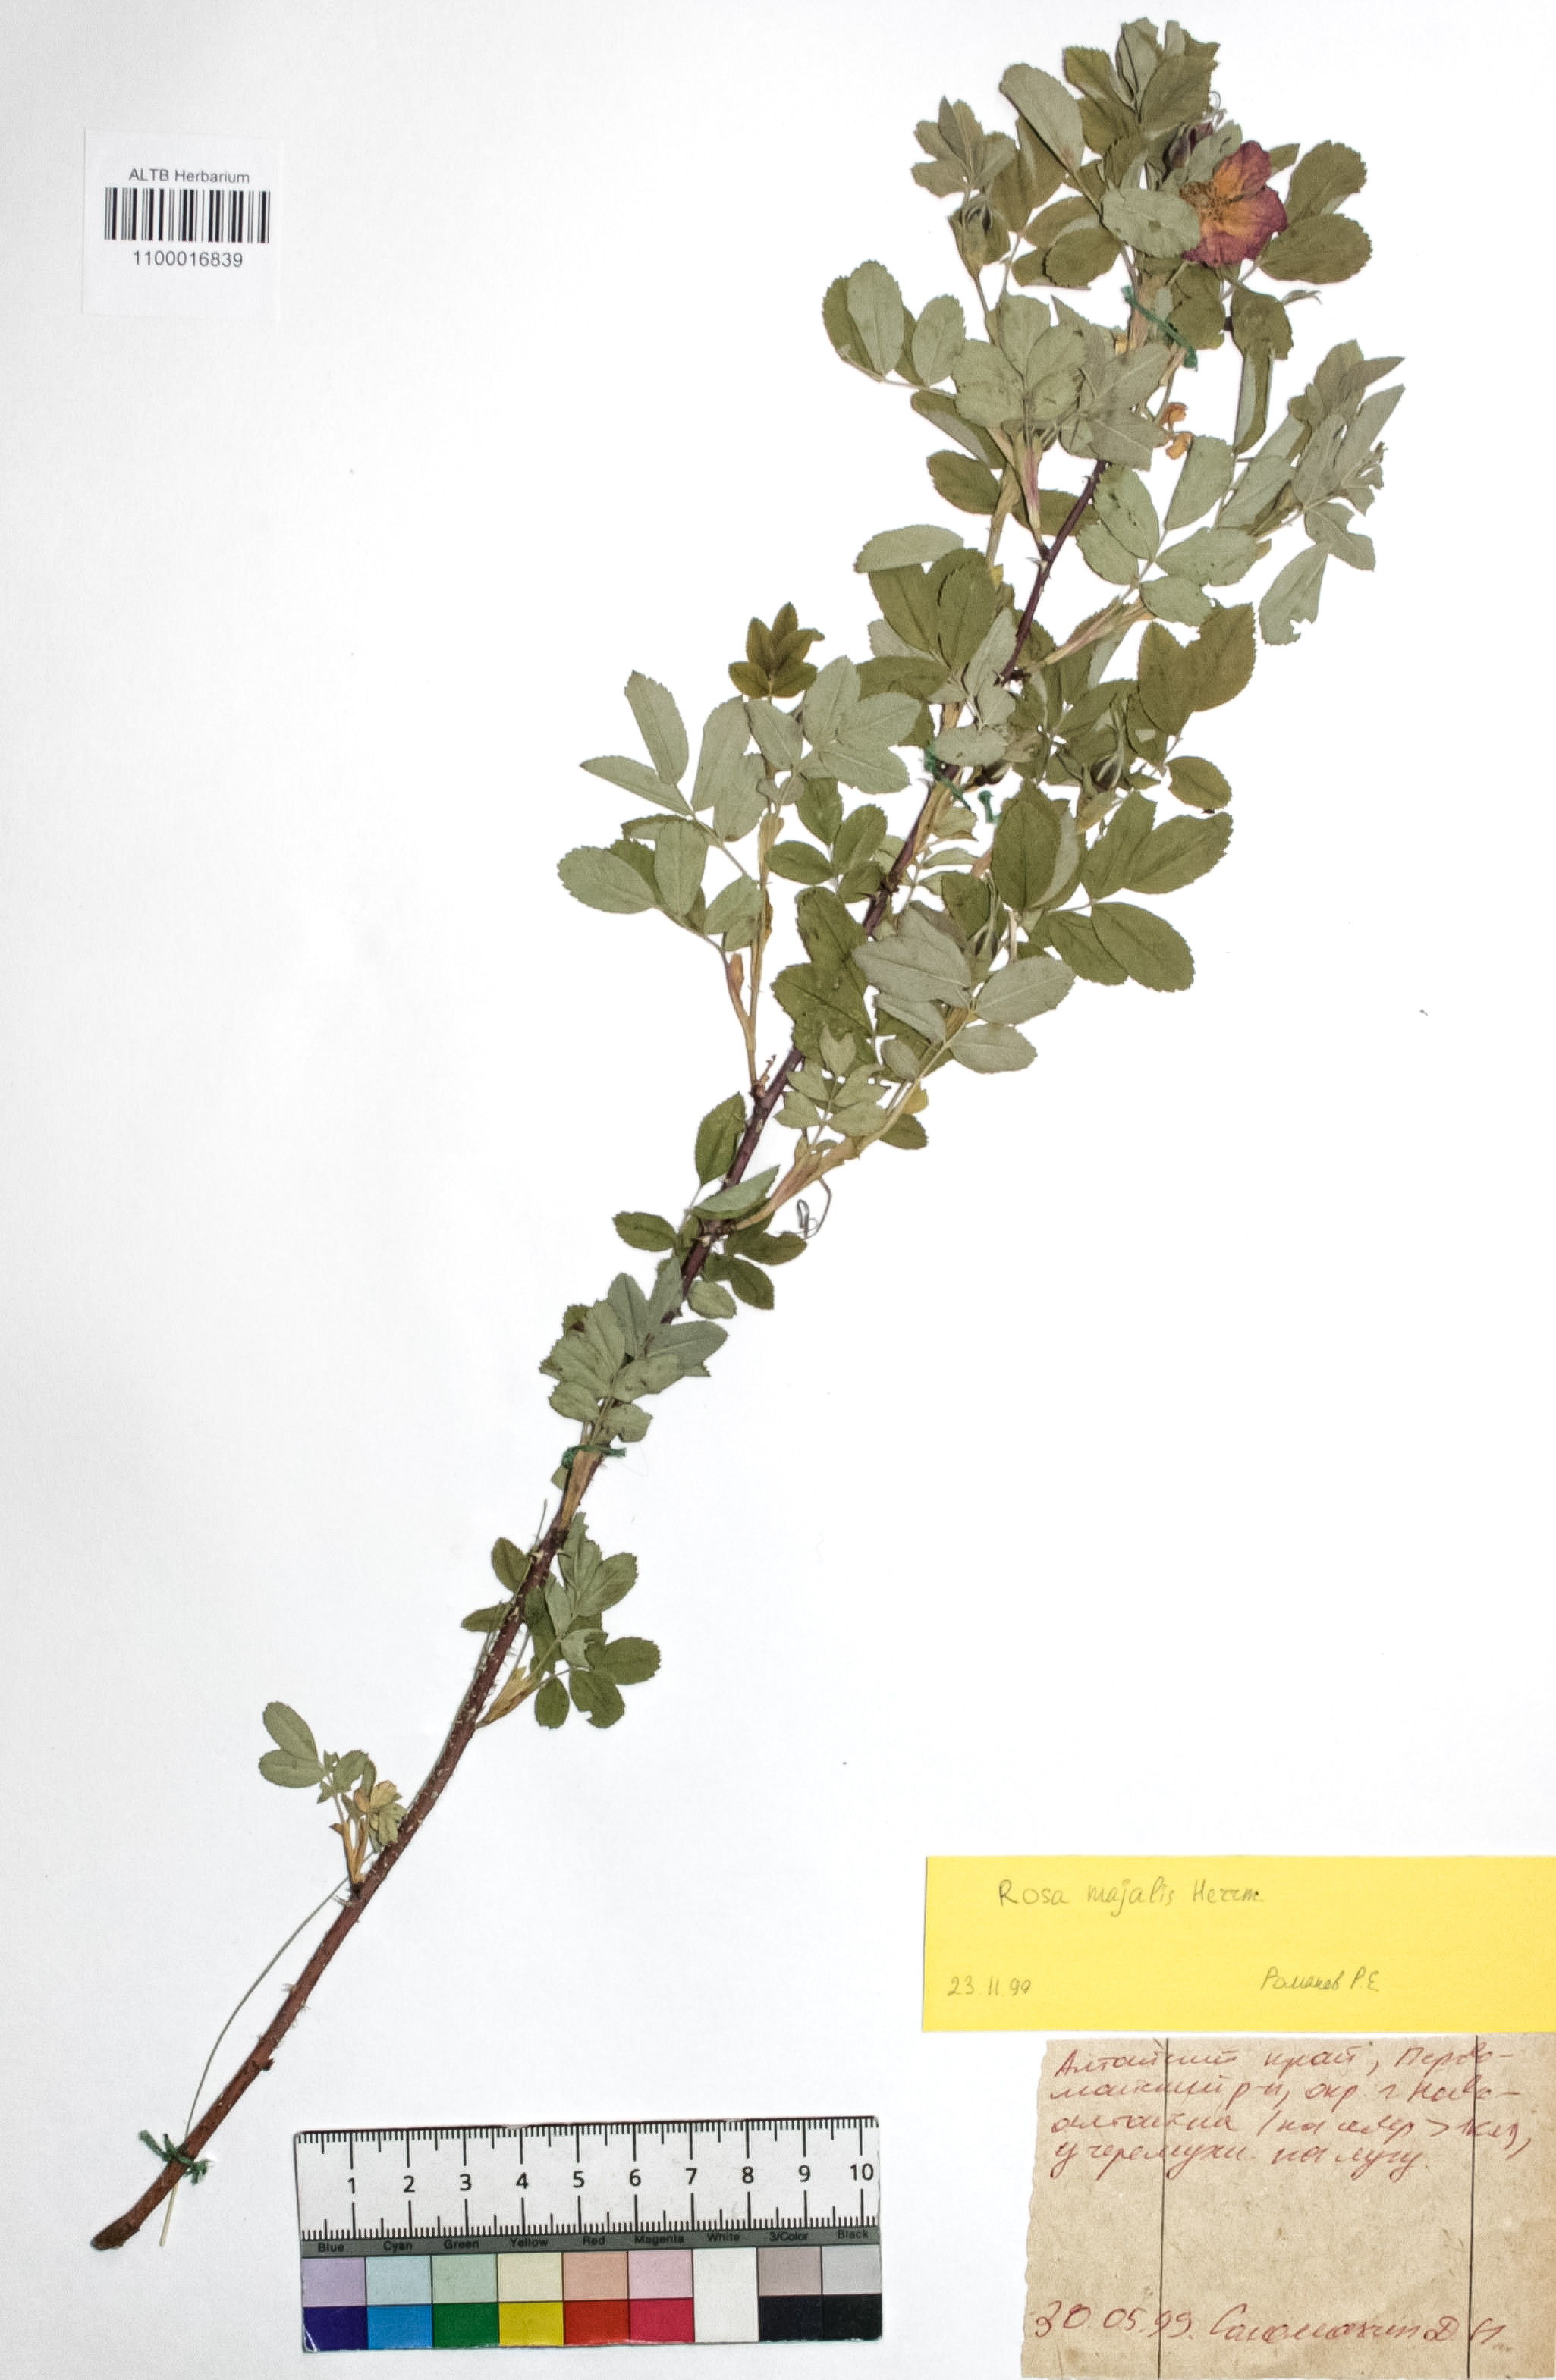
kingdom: Plantae
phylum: Tracheophyta
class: Magnoliopsida
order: Rosales
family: Rosaceae
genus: Rosa
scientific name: Rosa majalis
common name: Cinnamon rose
